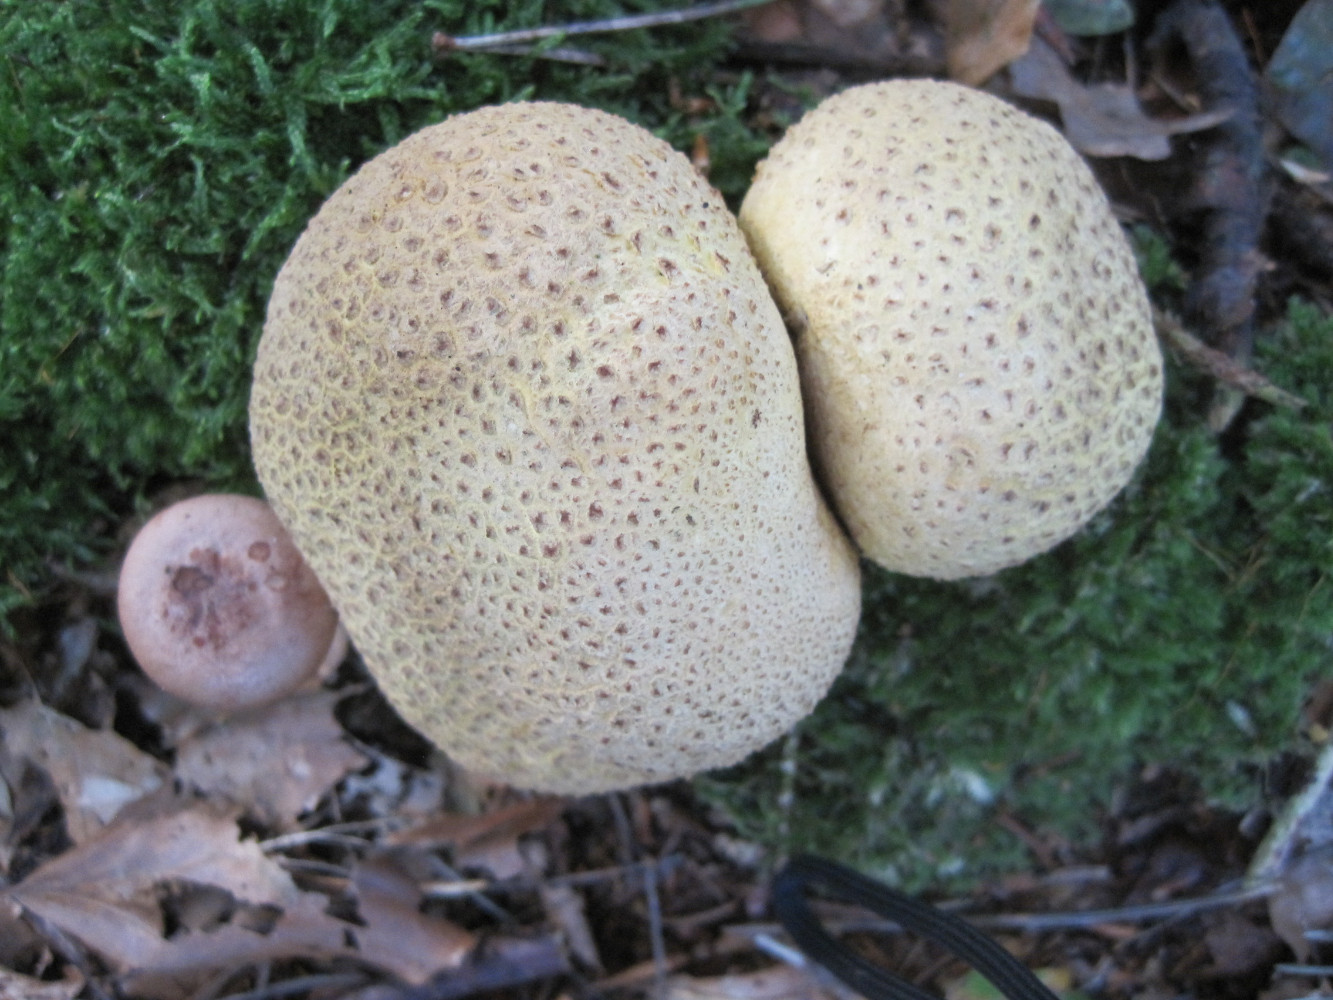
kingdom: Fungi
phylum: Basidiomycota
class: Agaricomycetes
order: Boletales
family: Sclerodermataceae
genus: Scleroderma
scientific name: Scleroderma citrinum
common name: almindelig bruskbold
